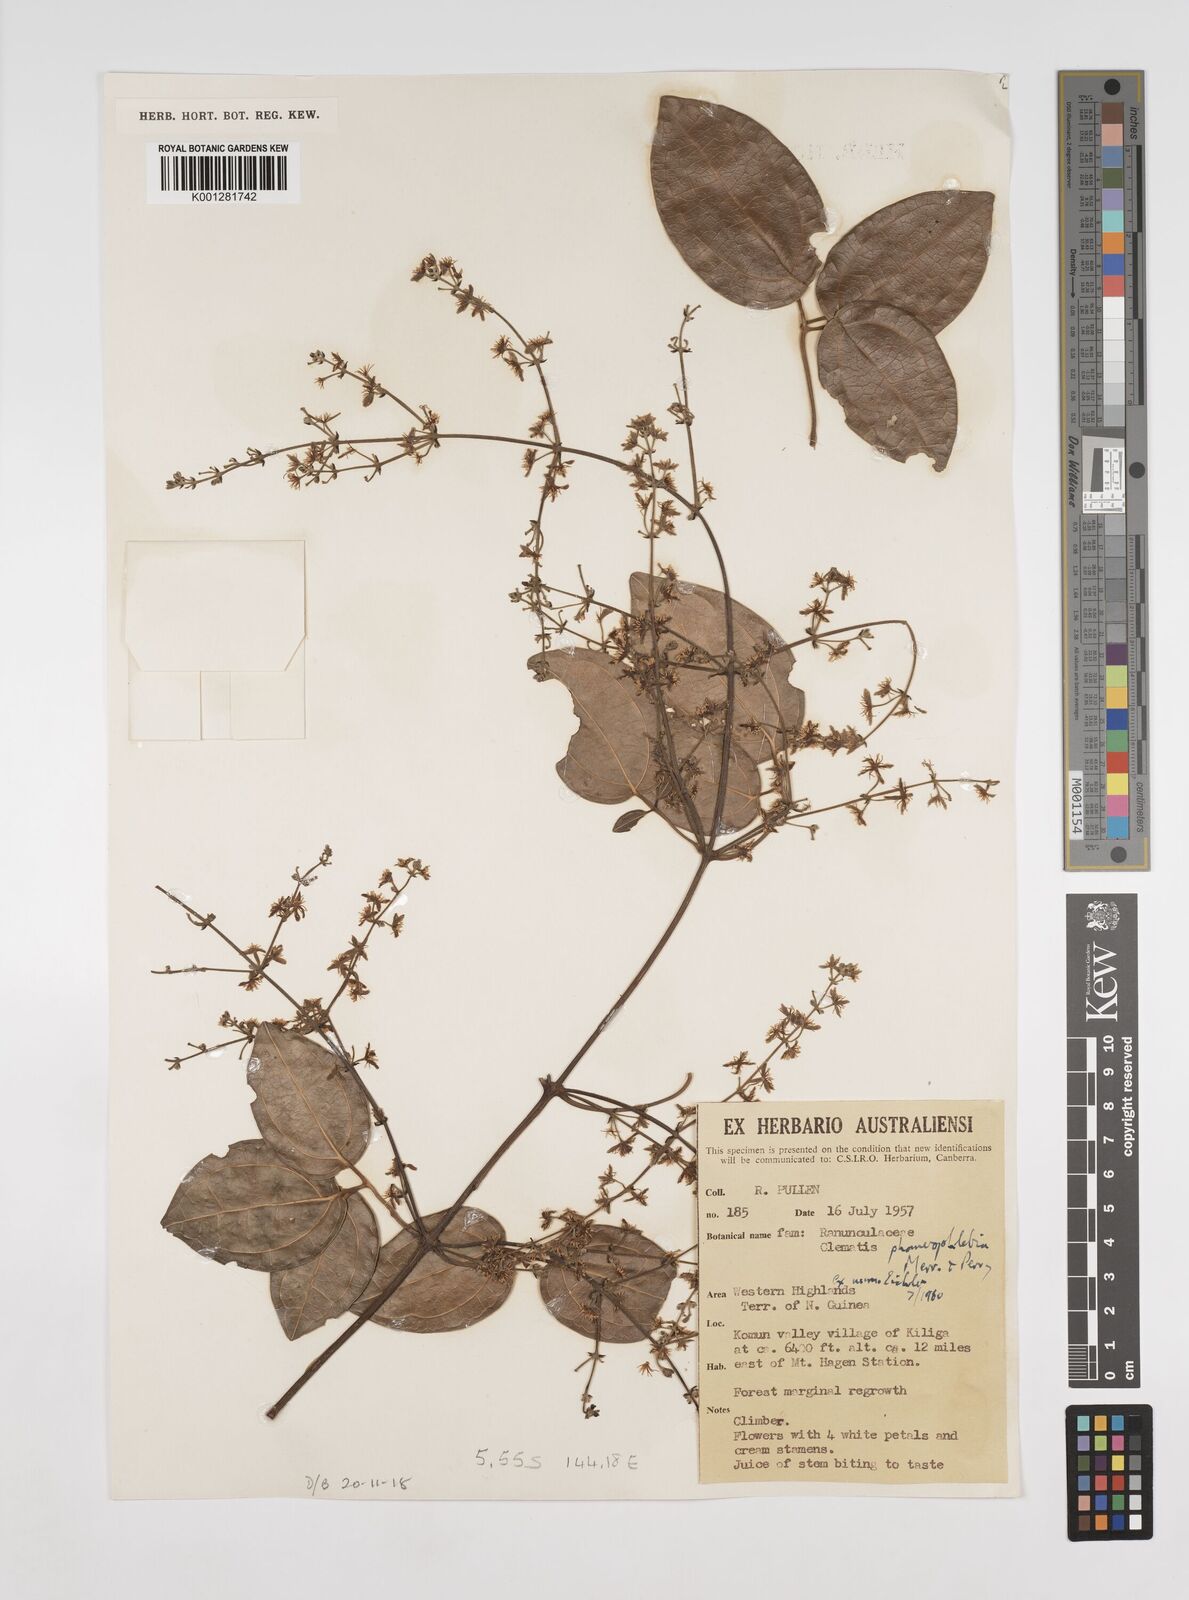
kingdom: Plantae
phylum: Tracheophyta
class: Magnoliopsida
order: Ranunculales
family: Ranunculaceae
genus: Clematis
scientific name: Clematis phanerophlebia
